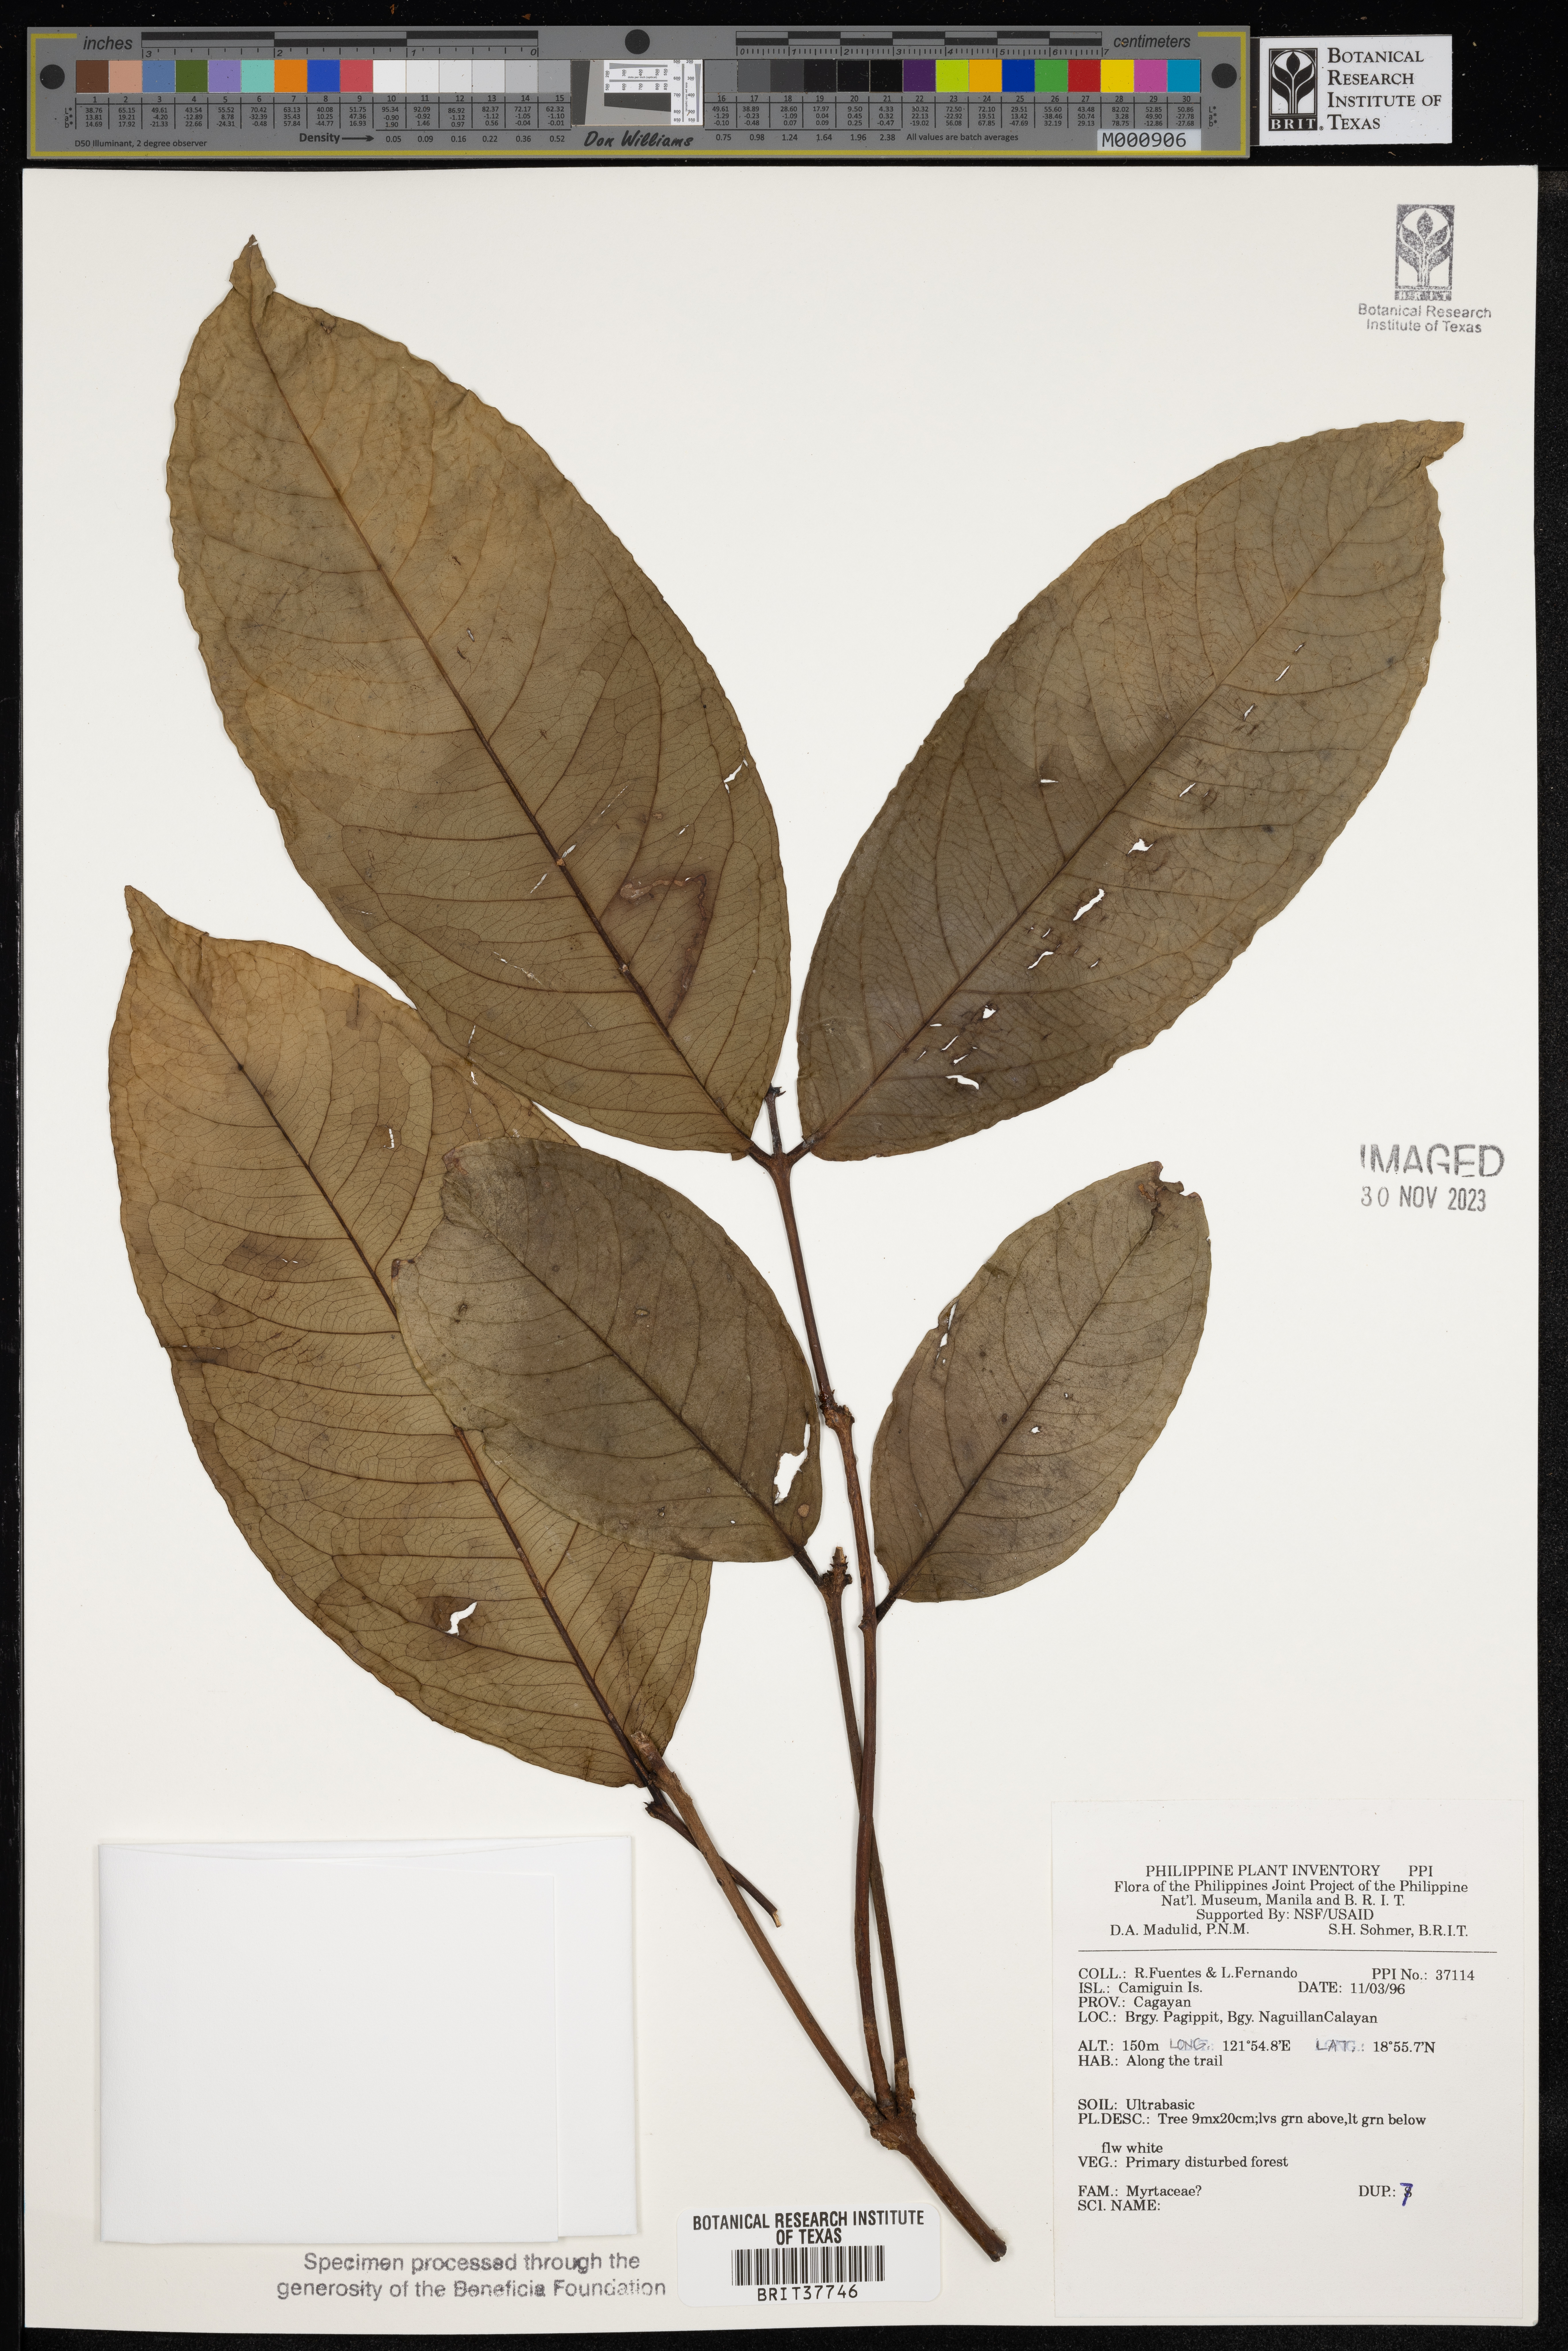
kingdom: Plantae
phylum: Tracheophyta
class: Magnoliopsida
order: Myrtales
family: Myrtaceae
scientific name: Myrtaceae
